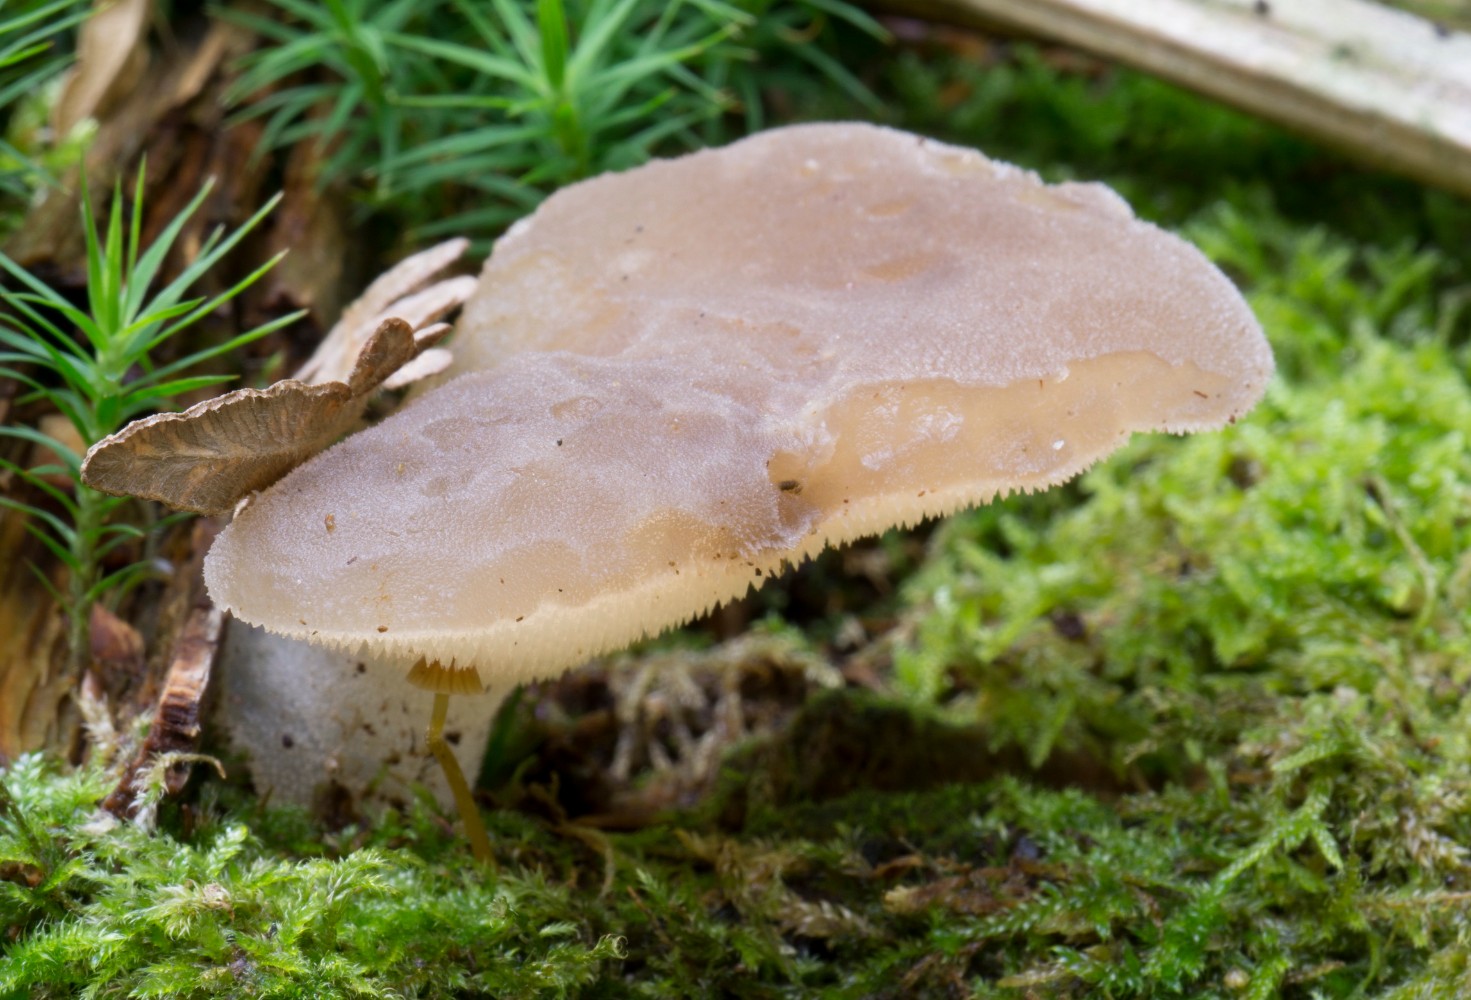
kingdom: Fungi
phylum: Basidiomycota
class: Agaricomycetes
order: Auriculariales
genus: Pseudohydnum
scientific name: Pseudohydnum gelatinosum
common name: bævretand
